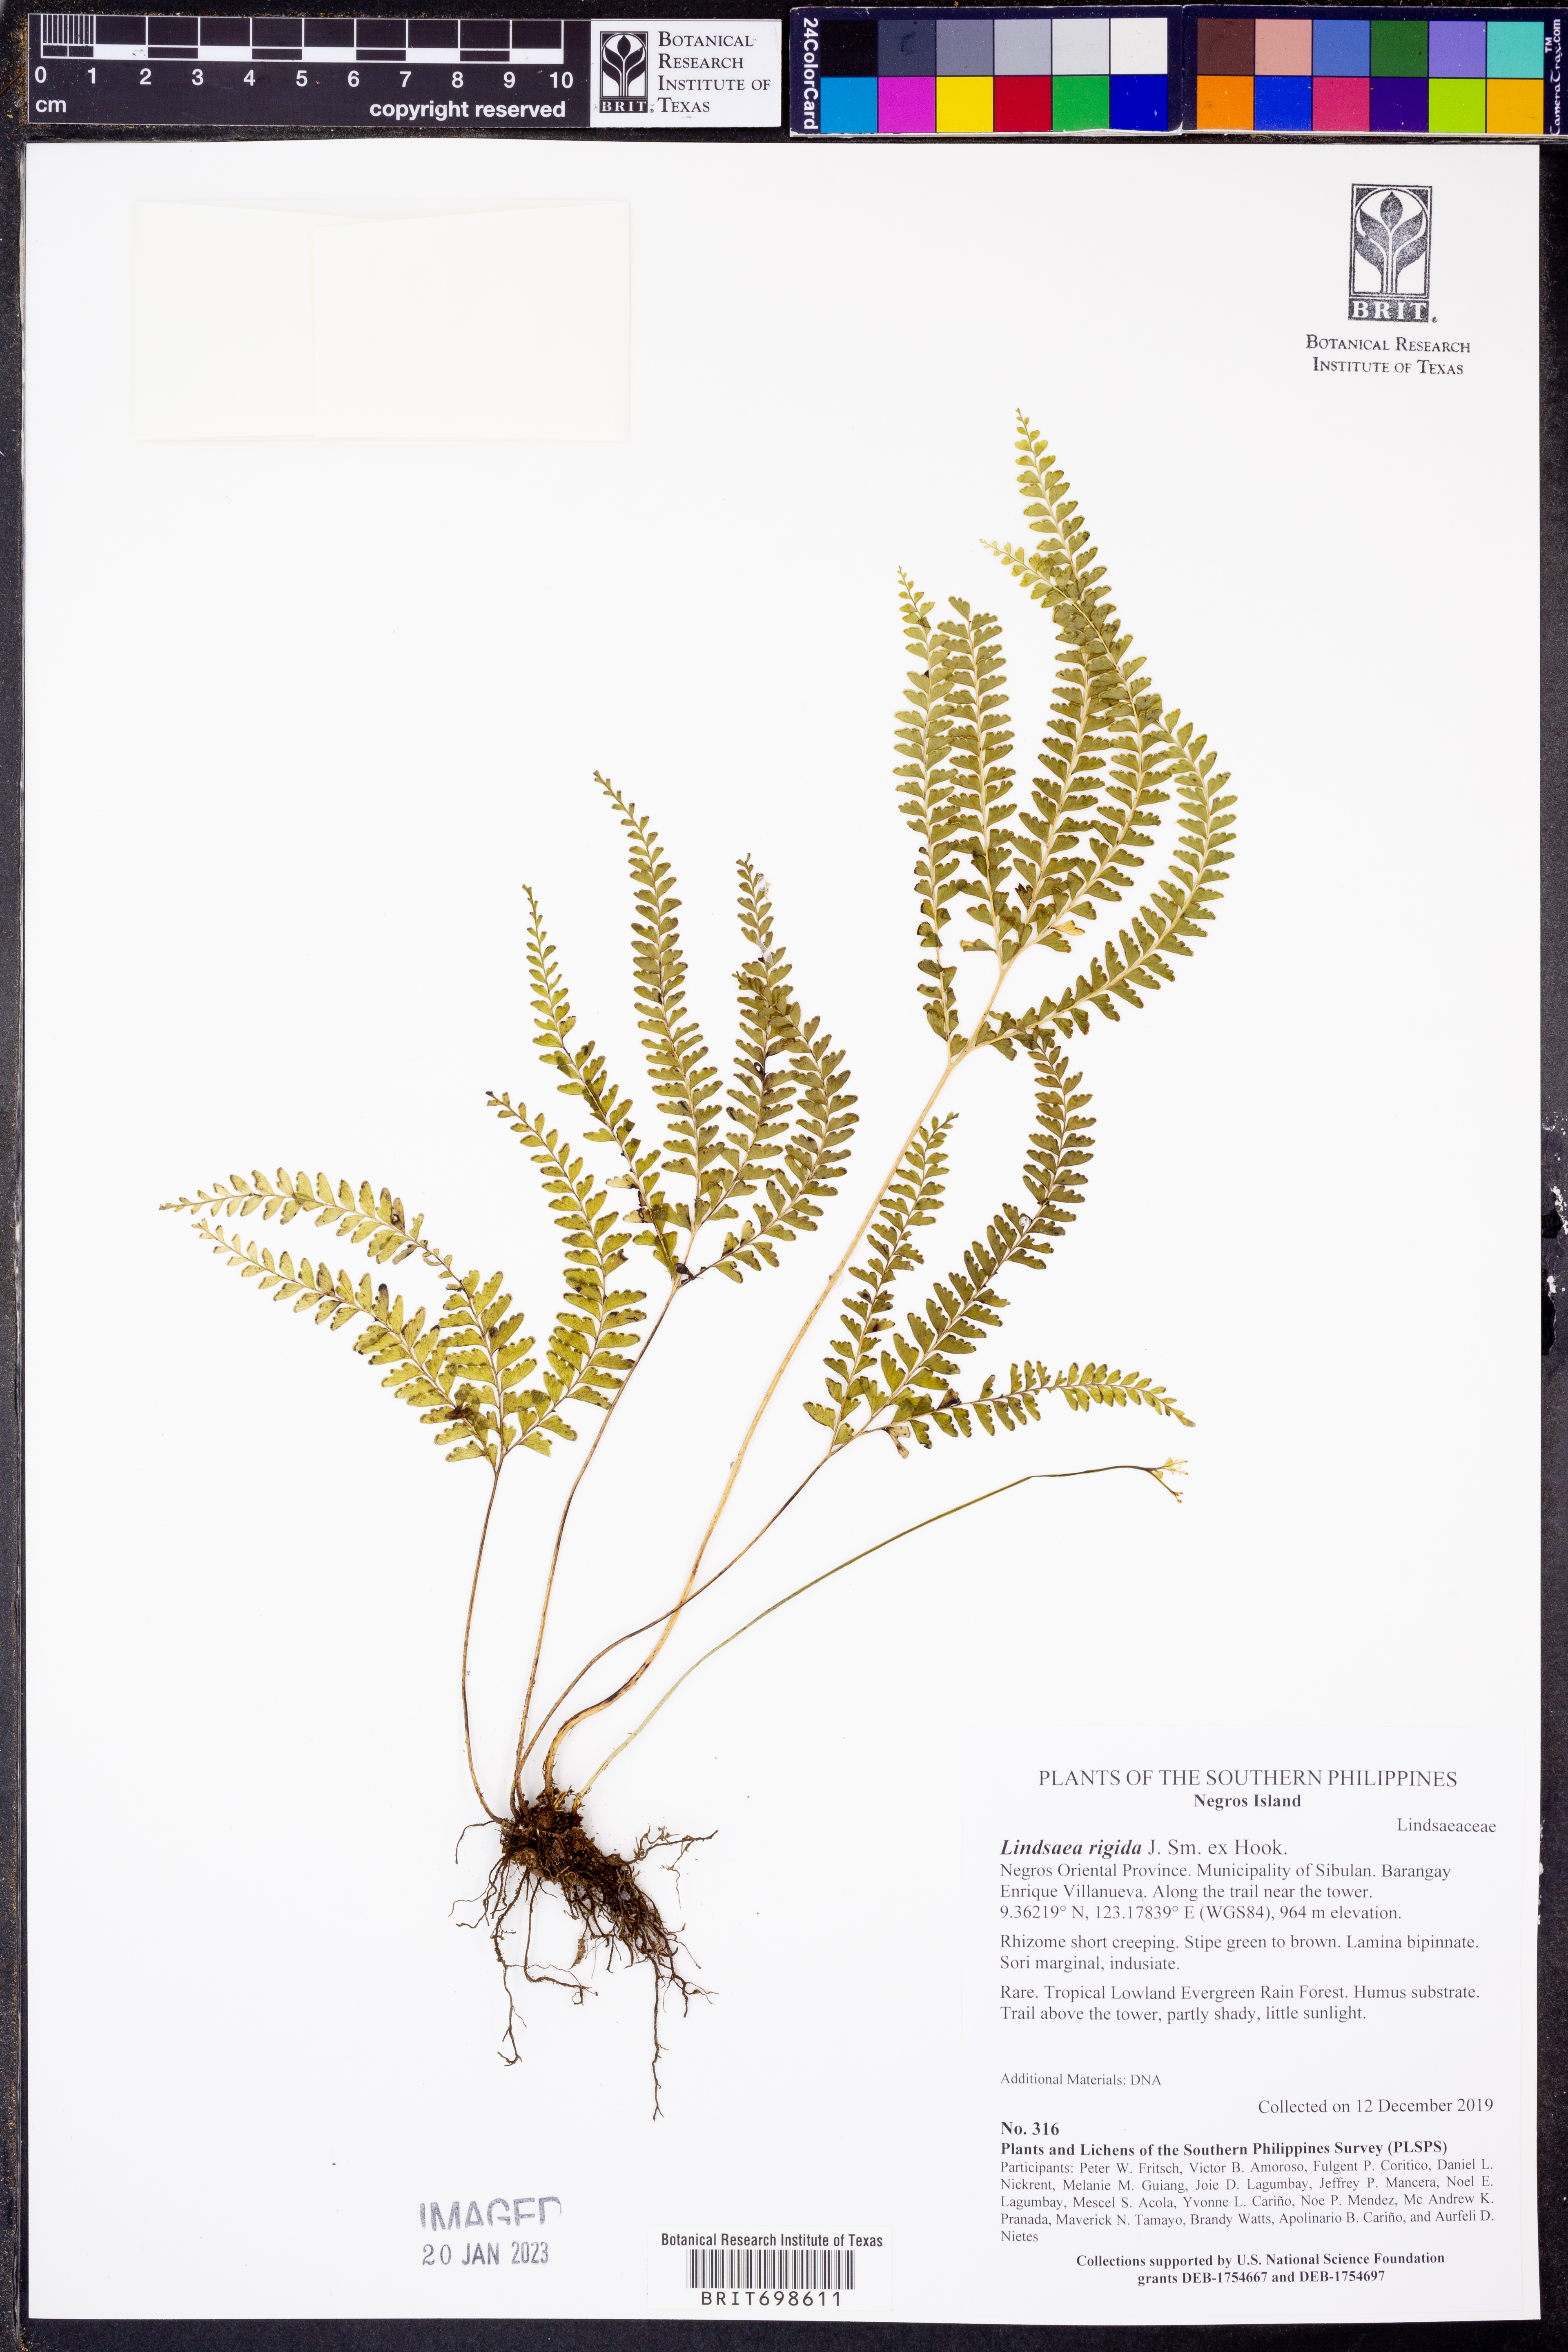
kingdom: Plantae
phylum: Tracheophyta
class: Polypodiopsida
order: Polypodiales
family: Lindsaeaceae
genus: Lindsaea
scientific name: Lindsaea rigida
